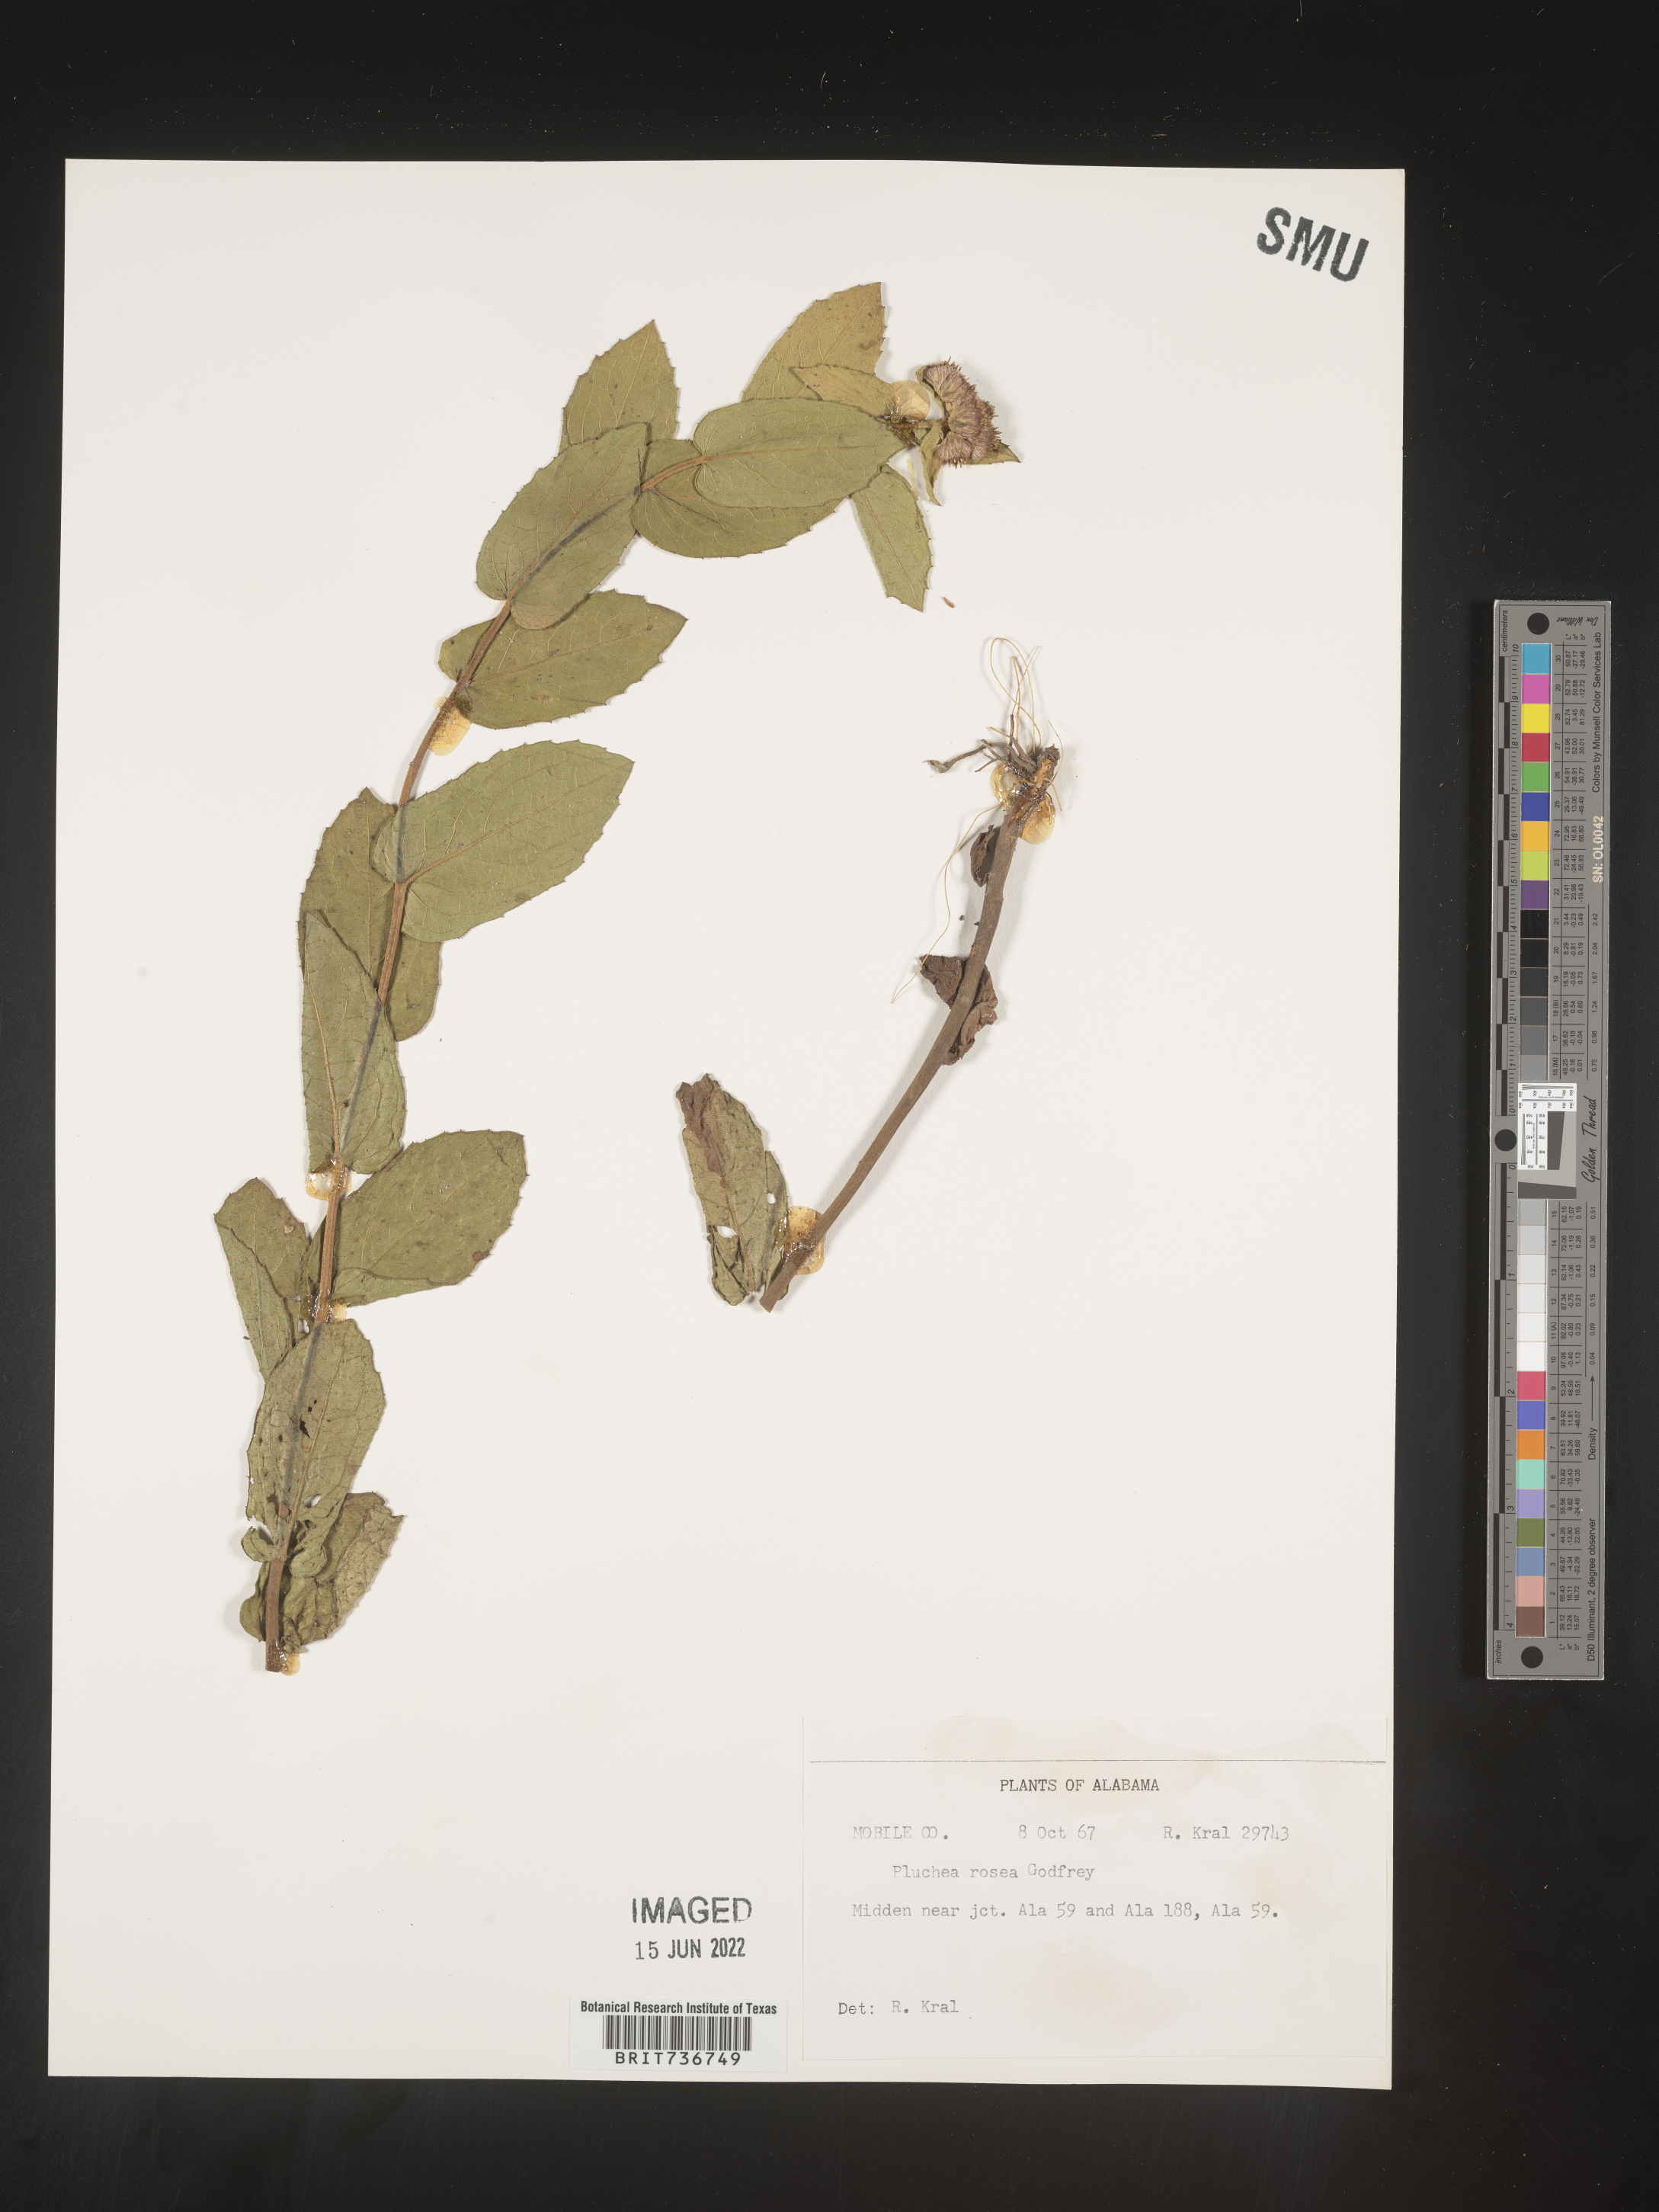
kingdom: Plantae
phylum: Tracheophyta
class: Magnoliopsida
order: Asterales
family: Asteraceae
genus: Pluchea
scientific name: Pluchea baccharis
